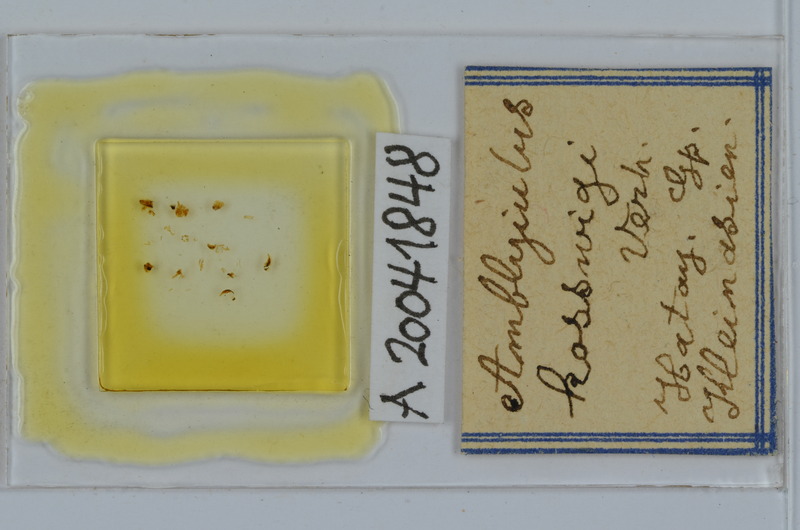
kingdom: Animalia
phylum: Arthropoda
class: Diplopoda
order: Julida
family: Julidae
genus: Amblyiulus
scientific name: Amblyiulus kosswigii
